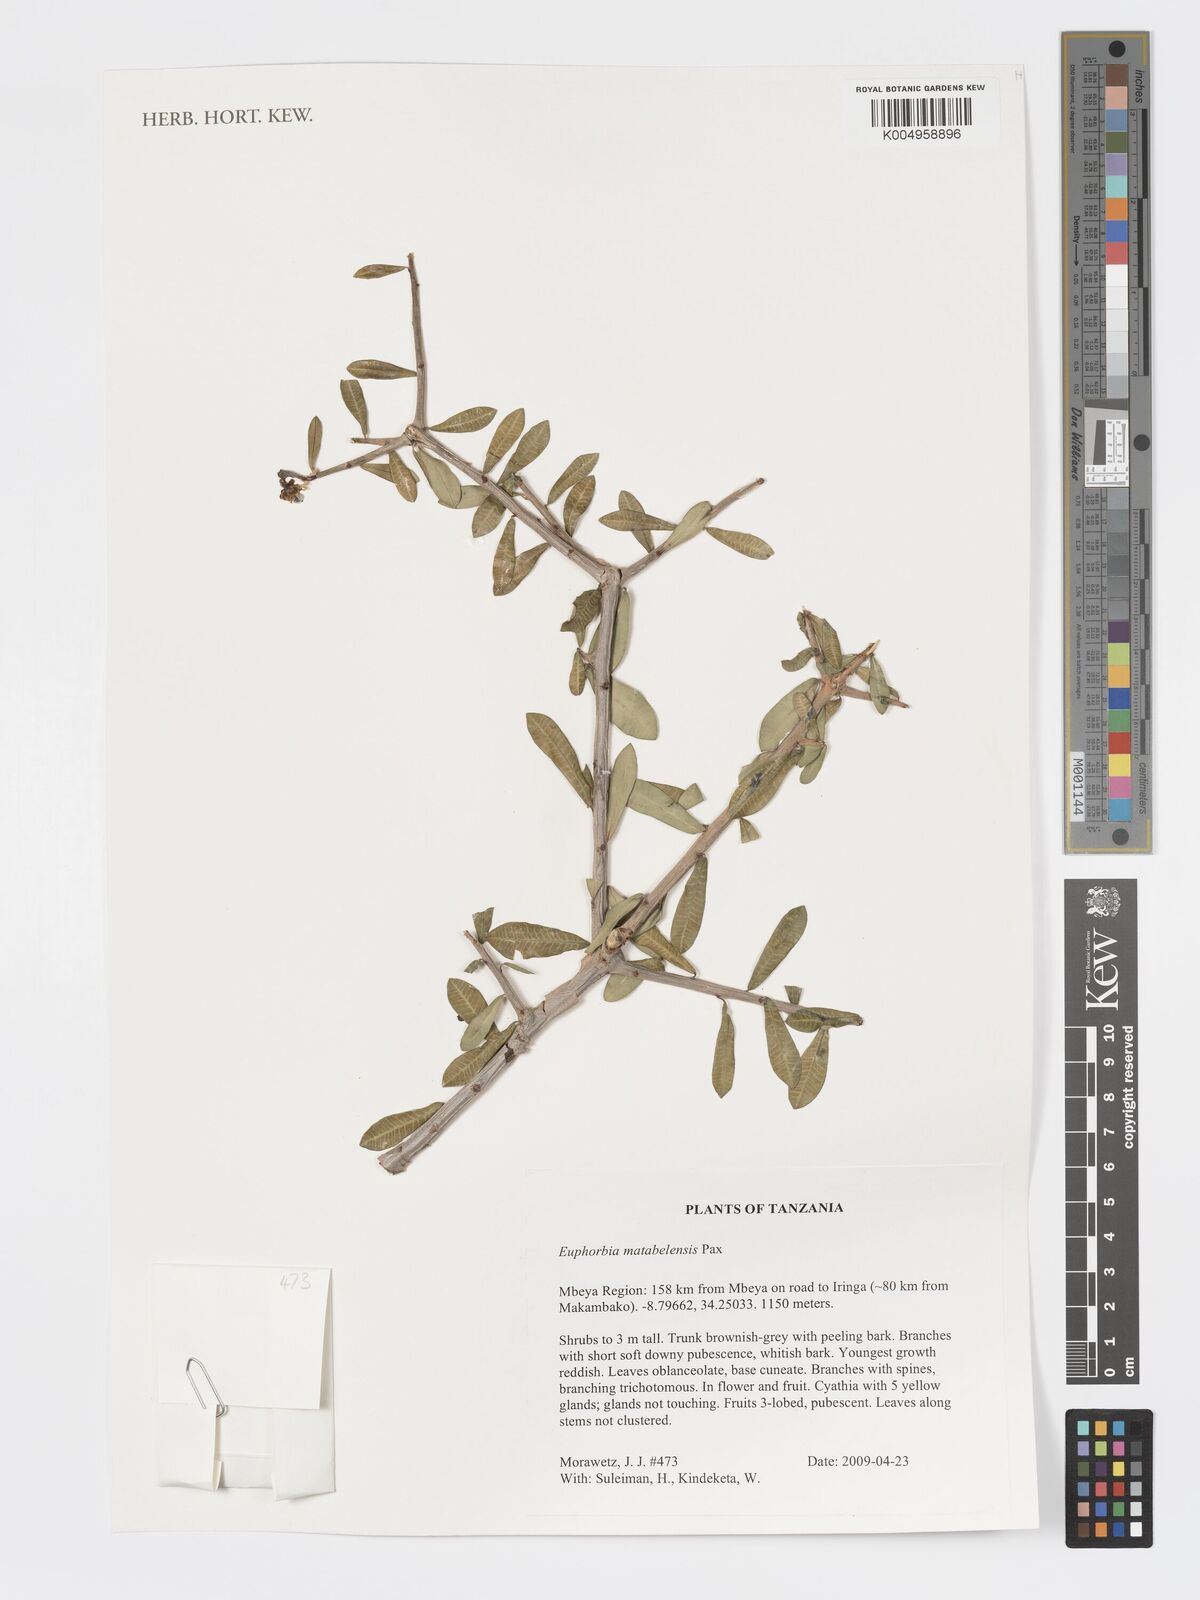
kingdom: Plantae
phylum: Tracheophyta
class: Magnoliopsida
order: Malpighiales
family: Euphorbiaceae
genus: Euphorbia
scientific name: Euphorbia matabelensis
